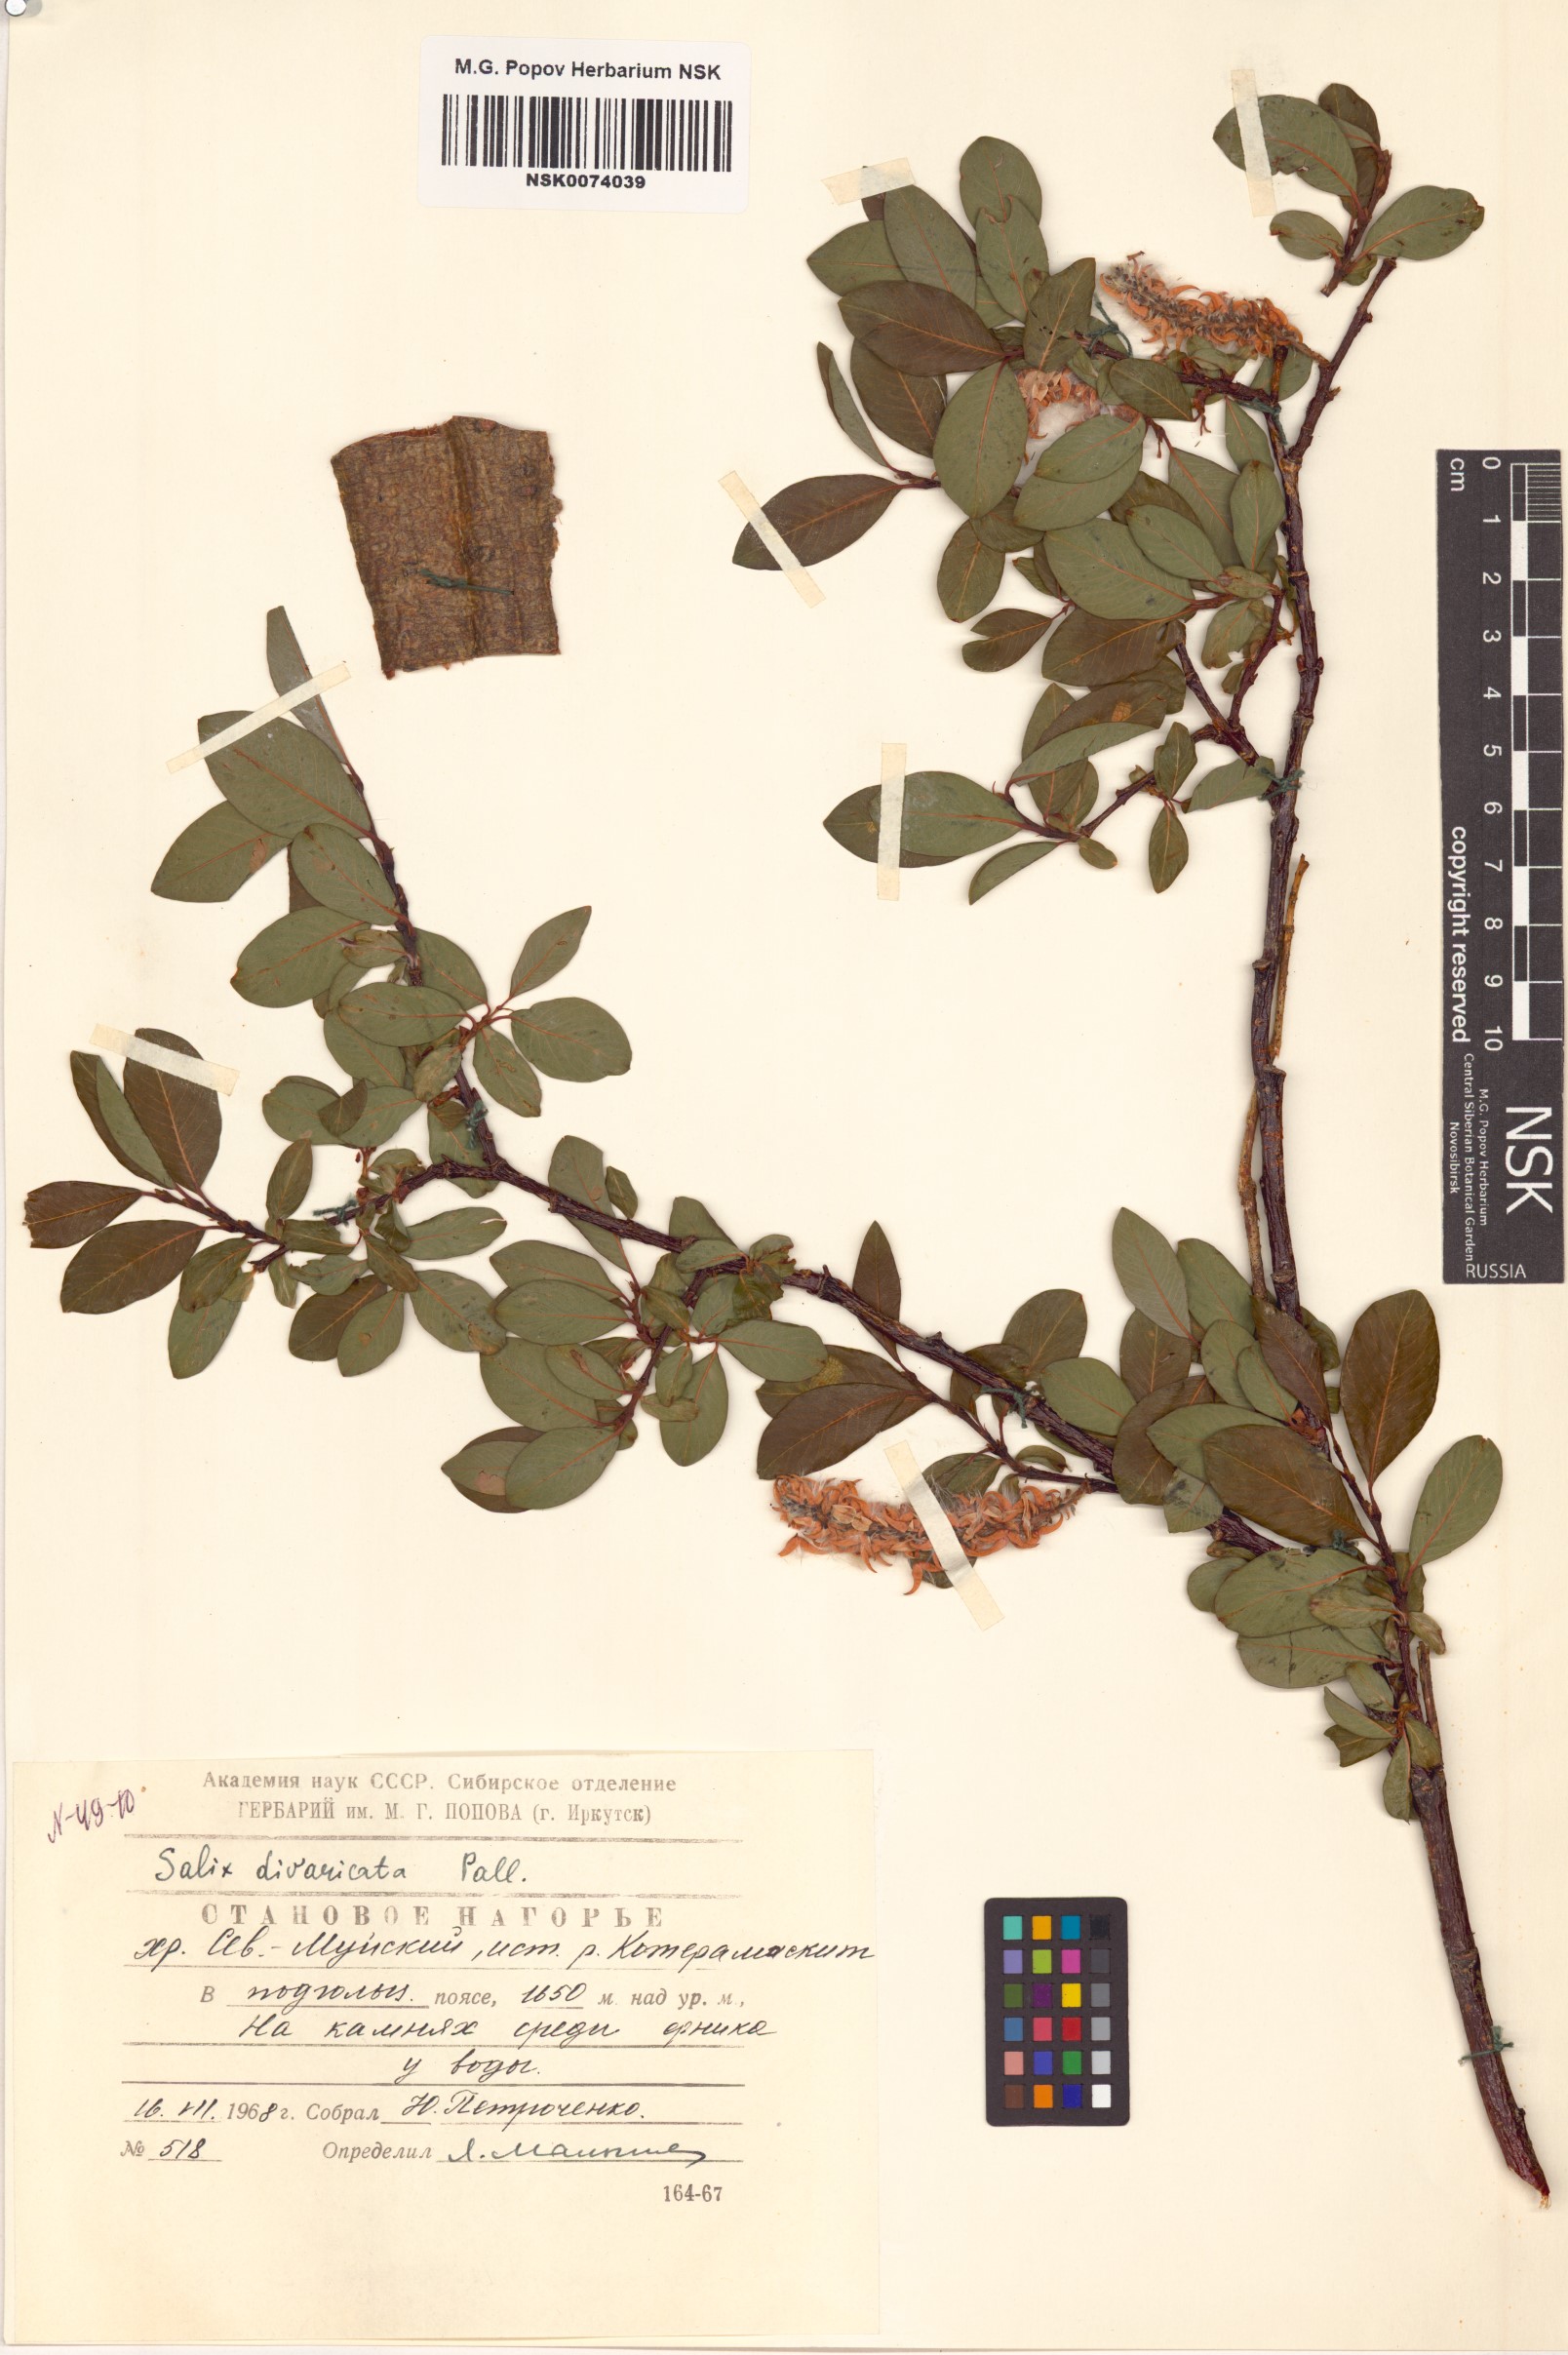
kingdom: Plantae
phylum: Tracheophyta
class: Magnoliopsida
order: Malpighiales
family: Salicaceae
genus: Salix
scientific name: Salix divaricata
